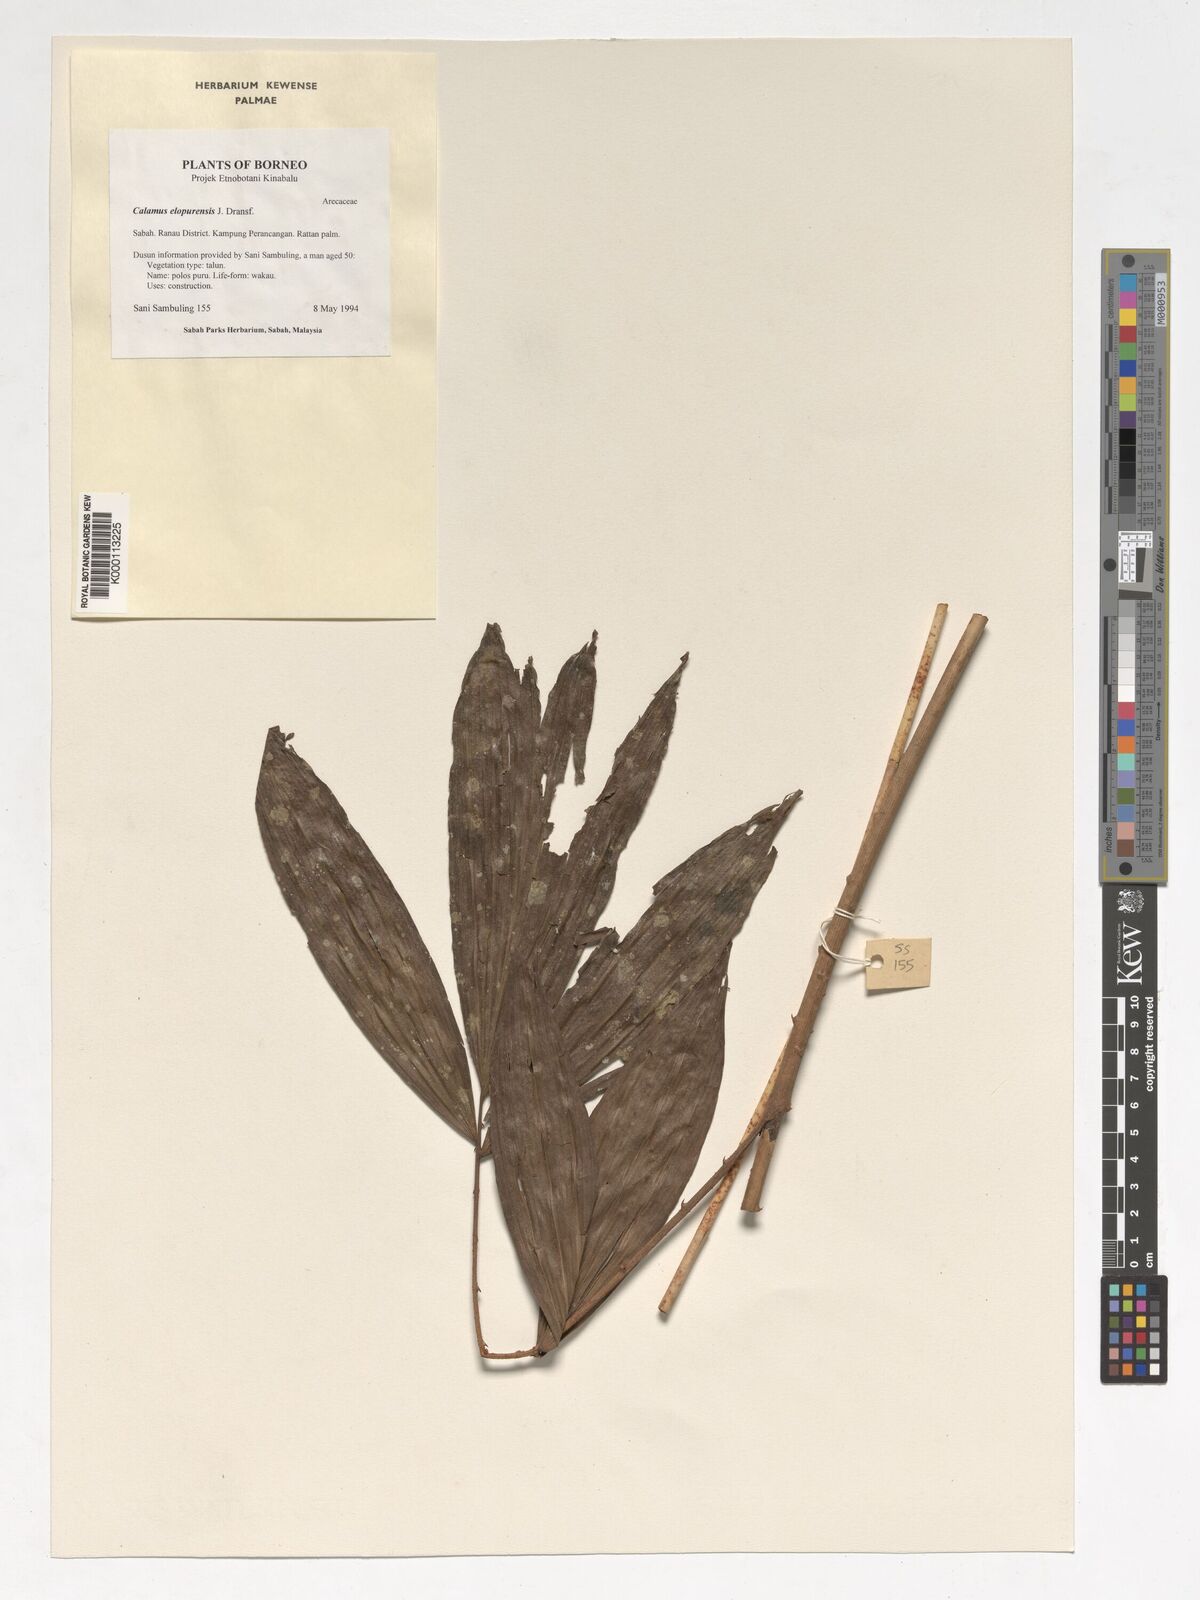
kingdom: Plantae
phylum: Tracheophyta
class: Liliopsida
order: Arecales
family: Arecaceae
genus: Calamus
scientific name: Calamus javensis
